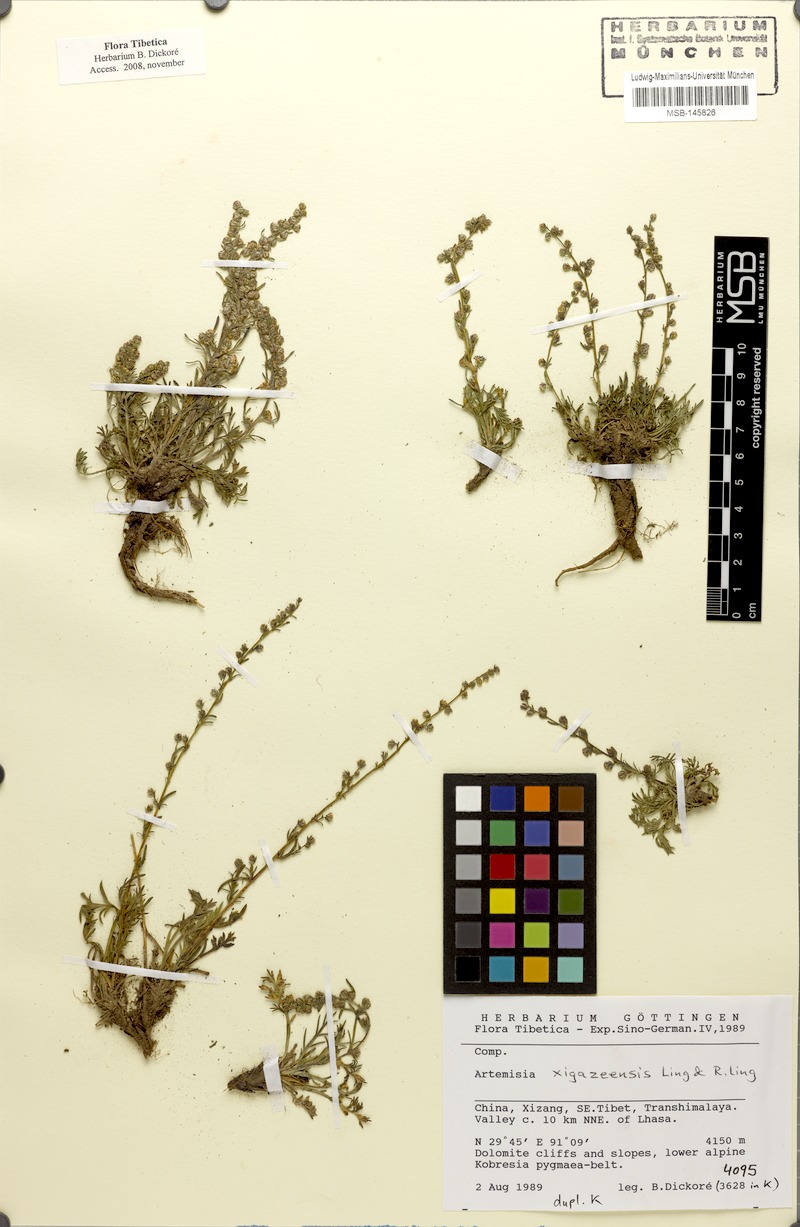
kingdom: Plantae
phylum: Tracheophyta
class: Magnoliopsida
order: Asterales
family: Asteraceae
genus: Artemisia
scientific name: Artemisia xigazeensis
